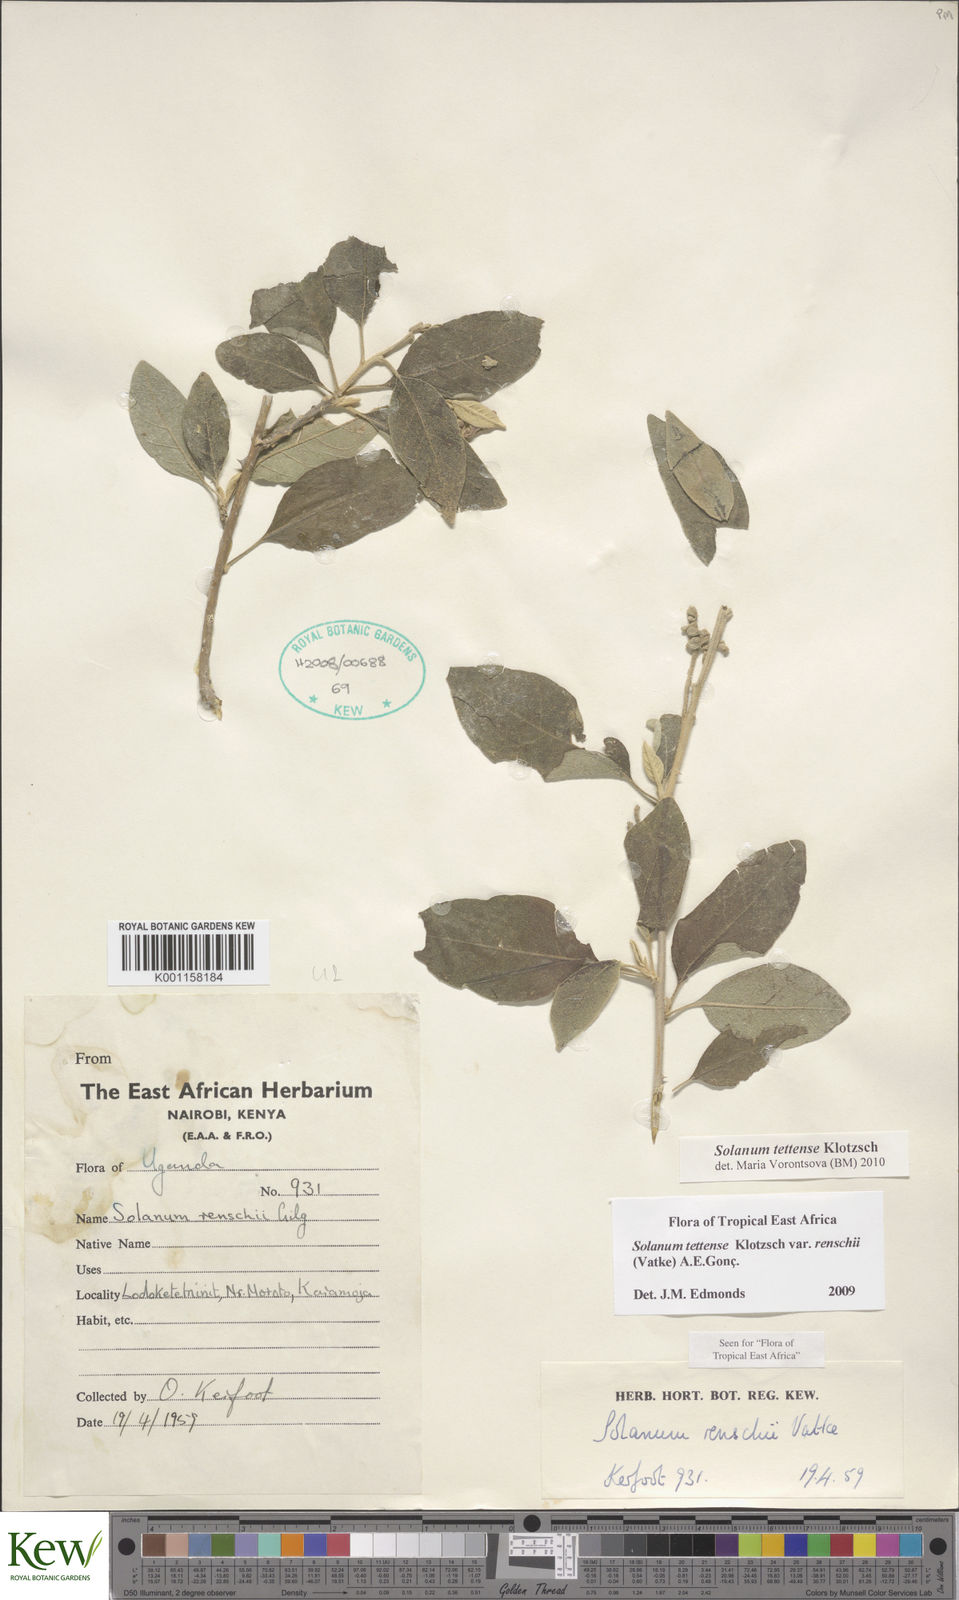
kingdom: Plantae
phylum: Tracheophyta
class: Magnoliopsida
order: Solanales
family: Solanaceae
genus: Solanum
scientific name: Solanum tettense
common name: Mozambique bitter apple
